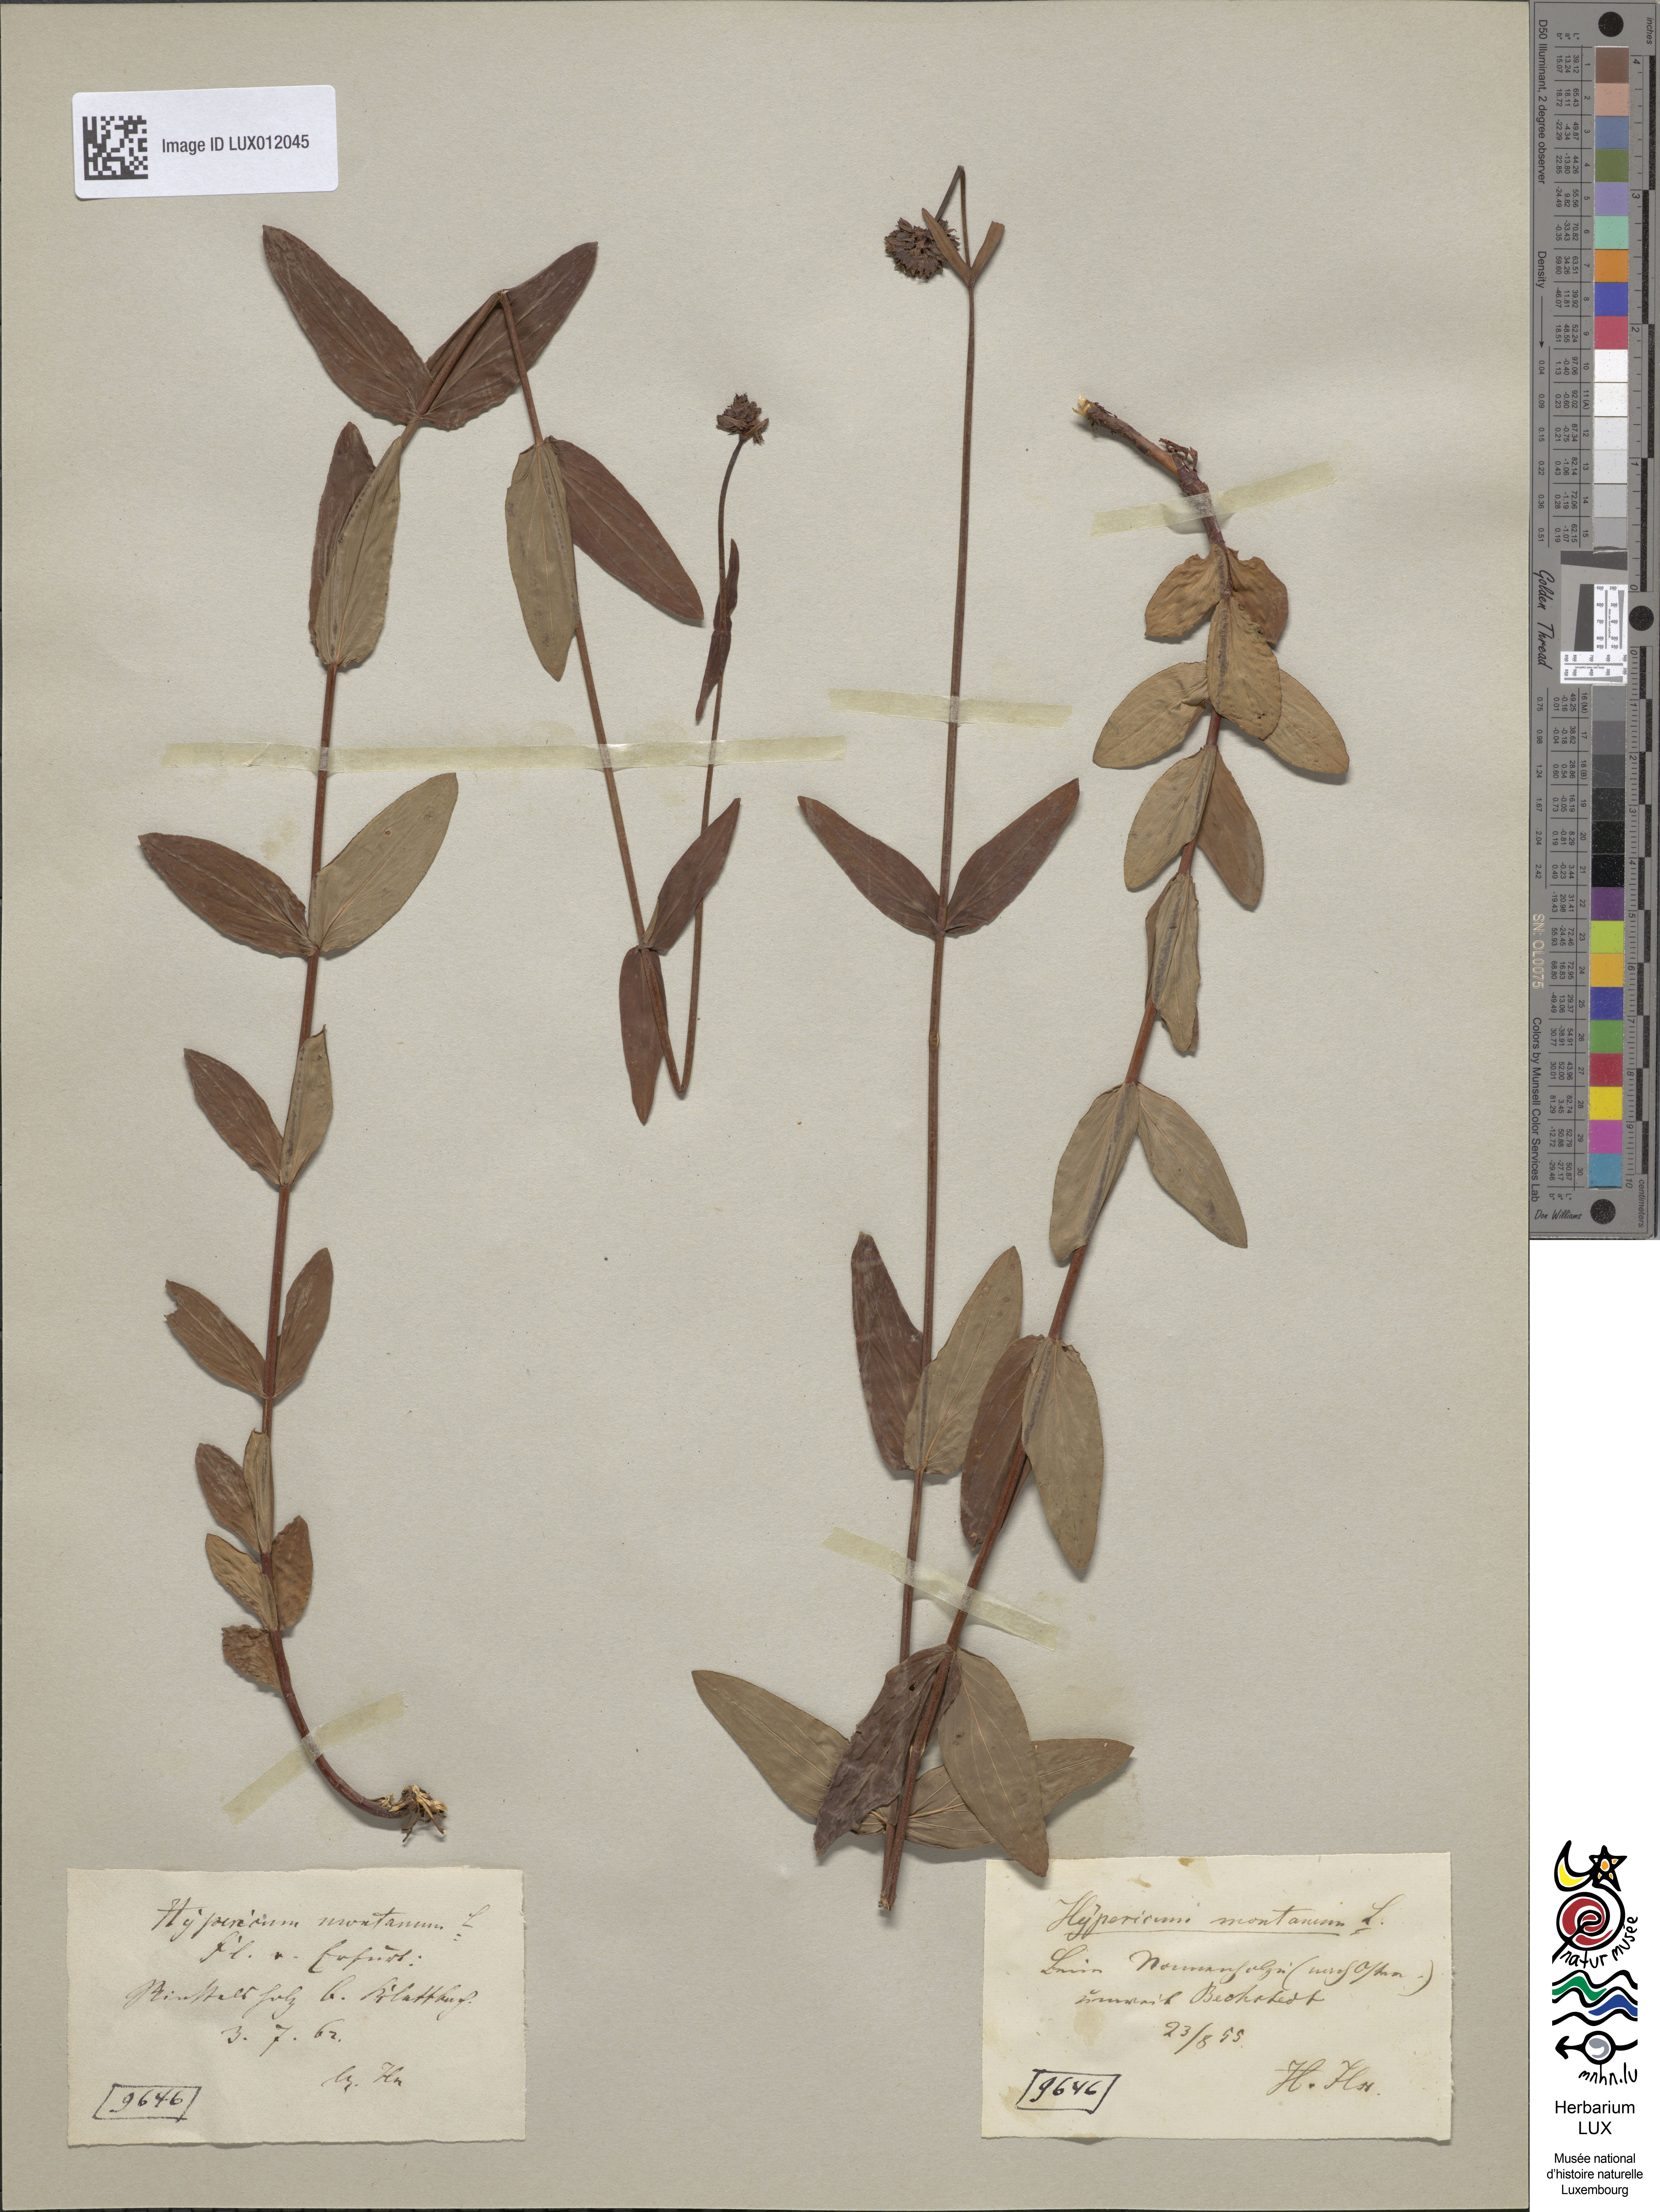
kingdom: Plantae
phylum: Tracheophyta
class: Magnoliopsida
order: Malpighiales
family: Hypericaceae
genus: Hypericum
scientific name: Hypericum montanum
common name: Pale st. john's-wort
